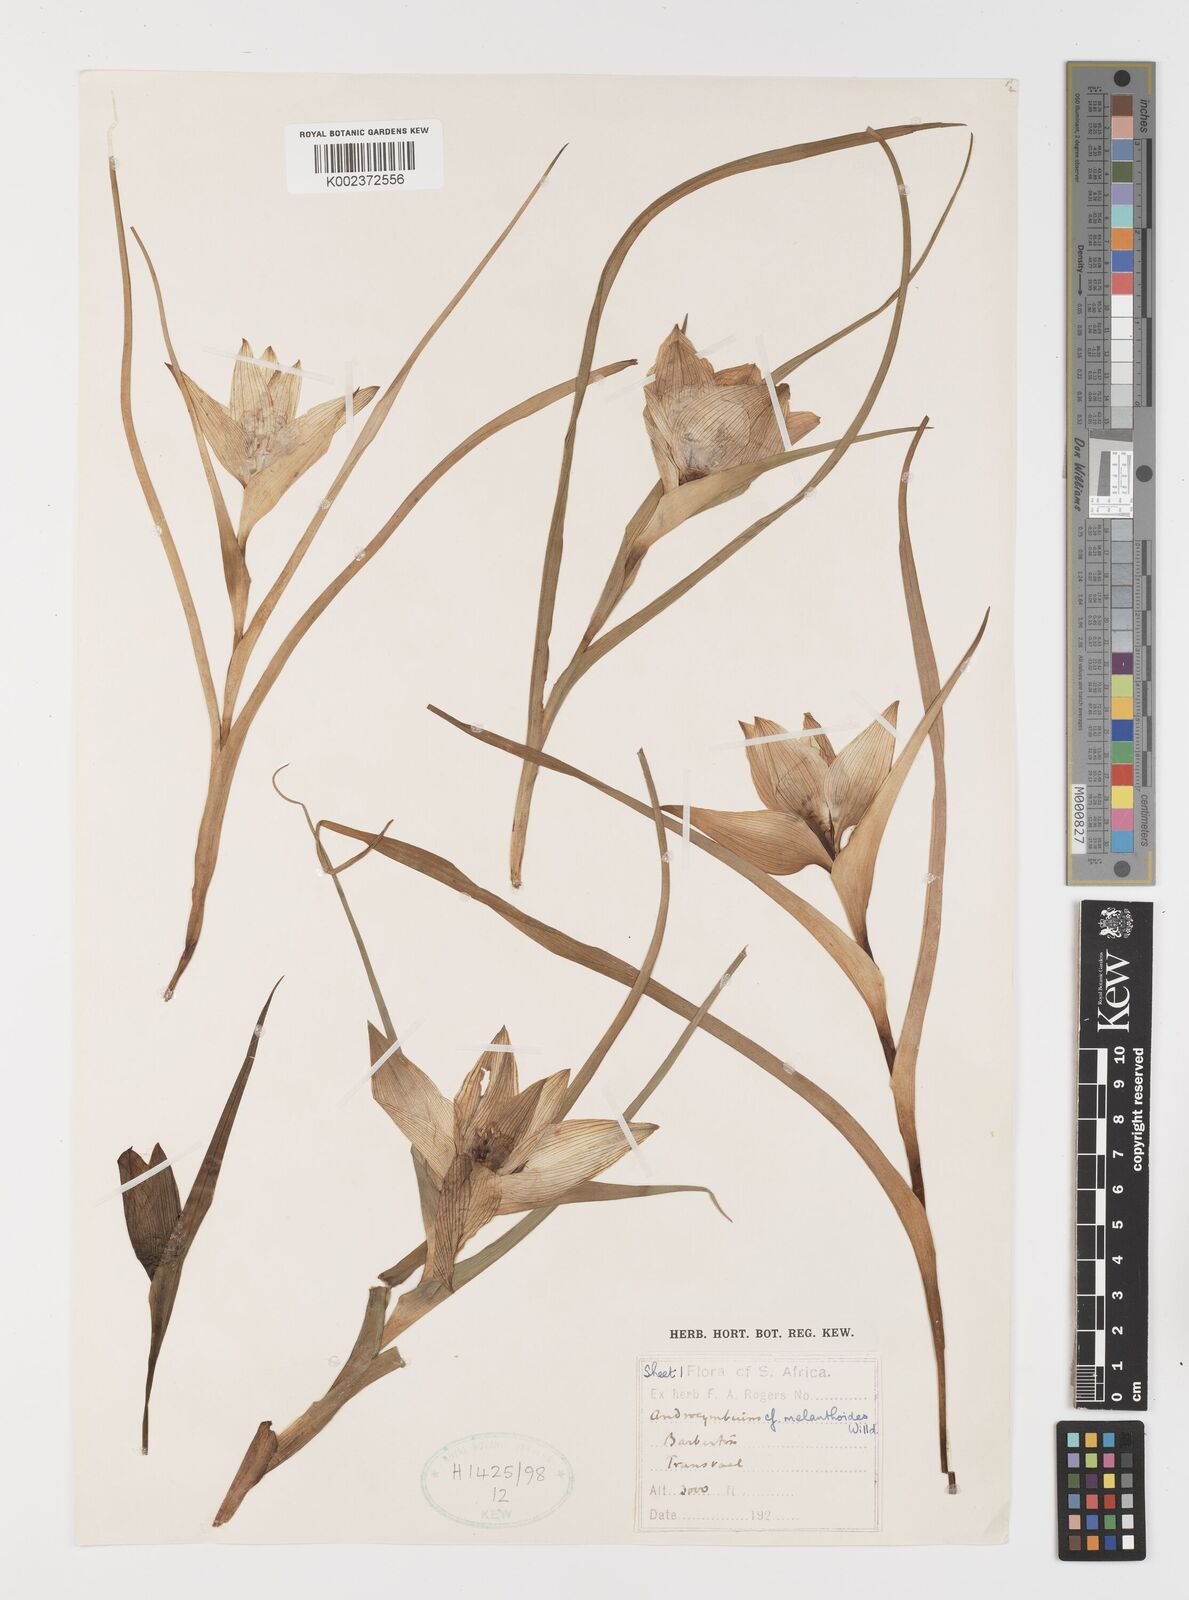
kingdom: Plantae
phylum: Tracheophyta
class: Liliopsida
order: Liliales
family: Colchicaceae
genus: Colchicum
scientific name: Colchicum melanthioides
